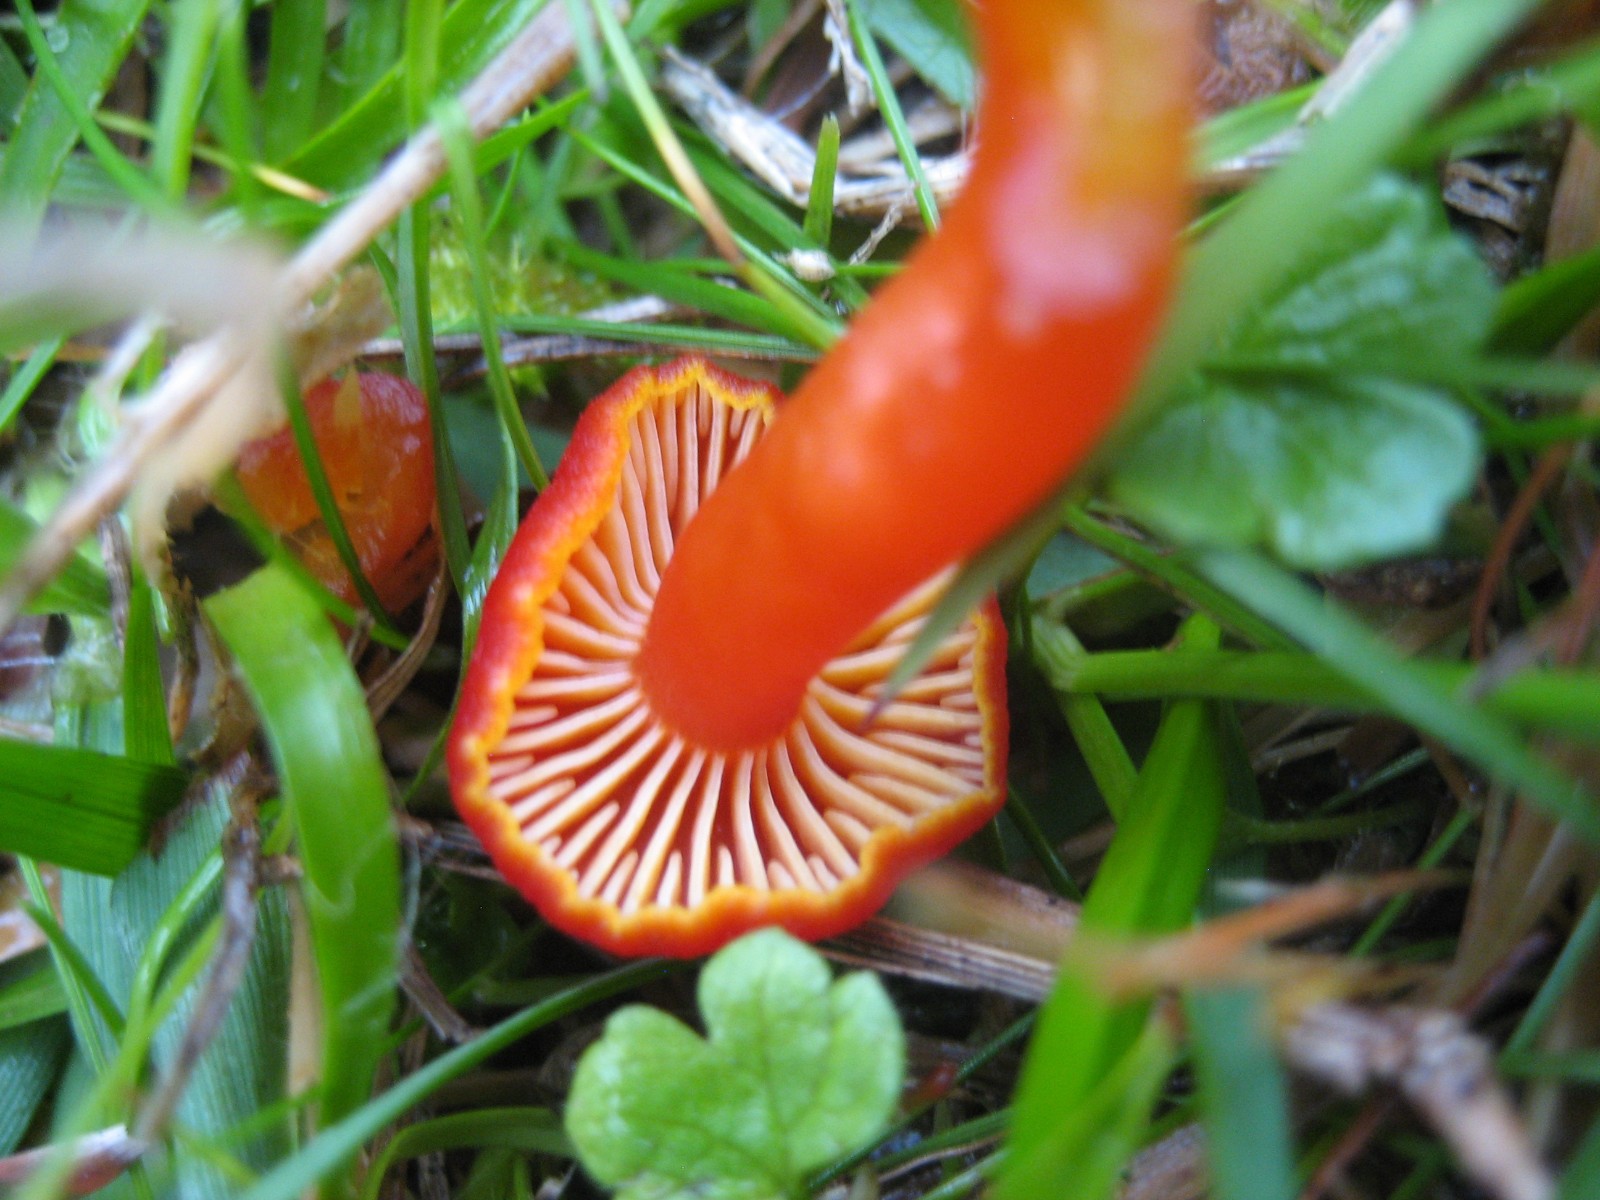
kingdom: Fungi
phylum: Basidiomycota
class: Agaricomycetes
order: Agaricales
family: Hygrophoraceae
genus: Hygrocybe
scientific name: Hygrocybe coccinea
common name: cinnober-vokshat
